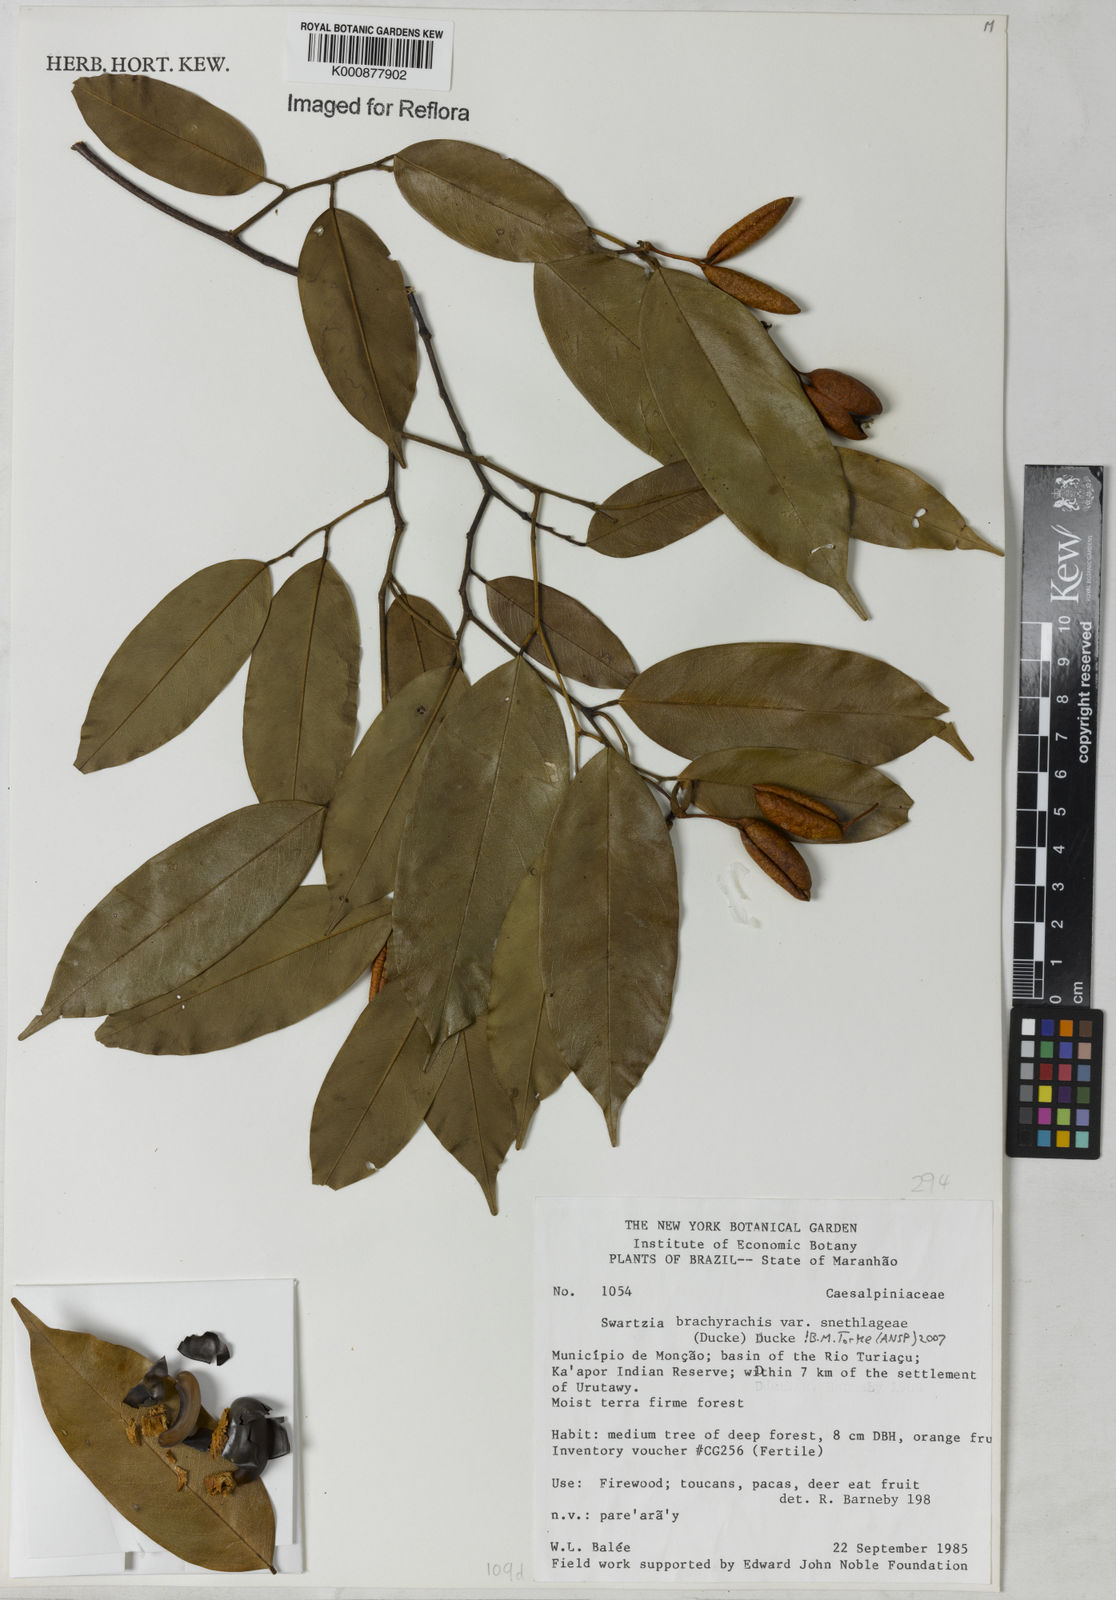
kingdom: Plantae
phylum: Tracheophyta
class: Magnoliopsida
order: Fabales
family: Fabaceae
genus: Swartzia
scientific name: Swartzia
